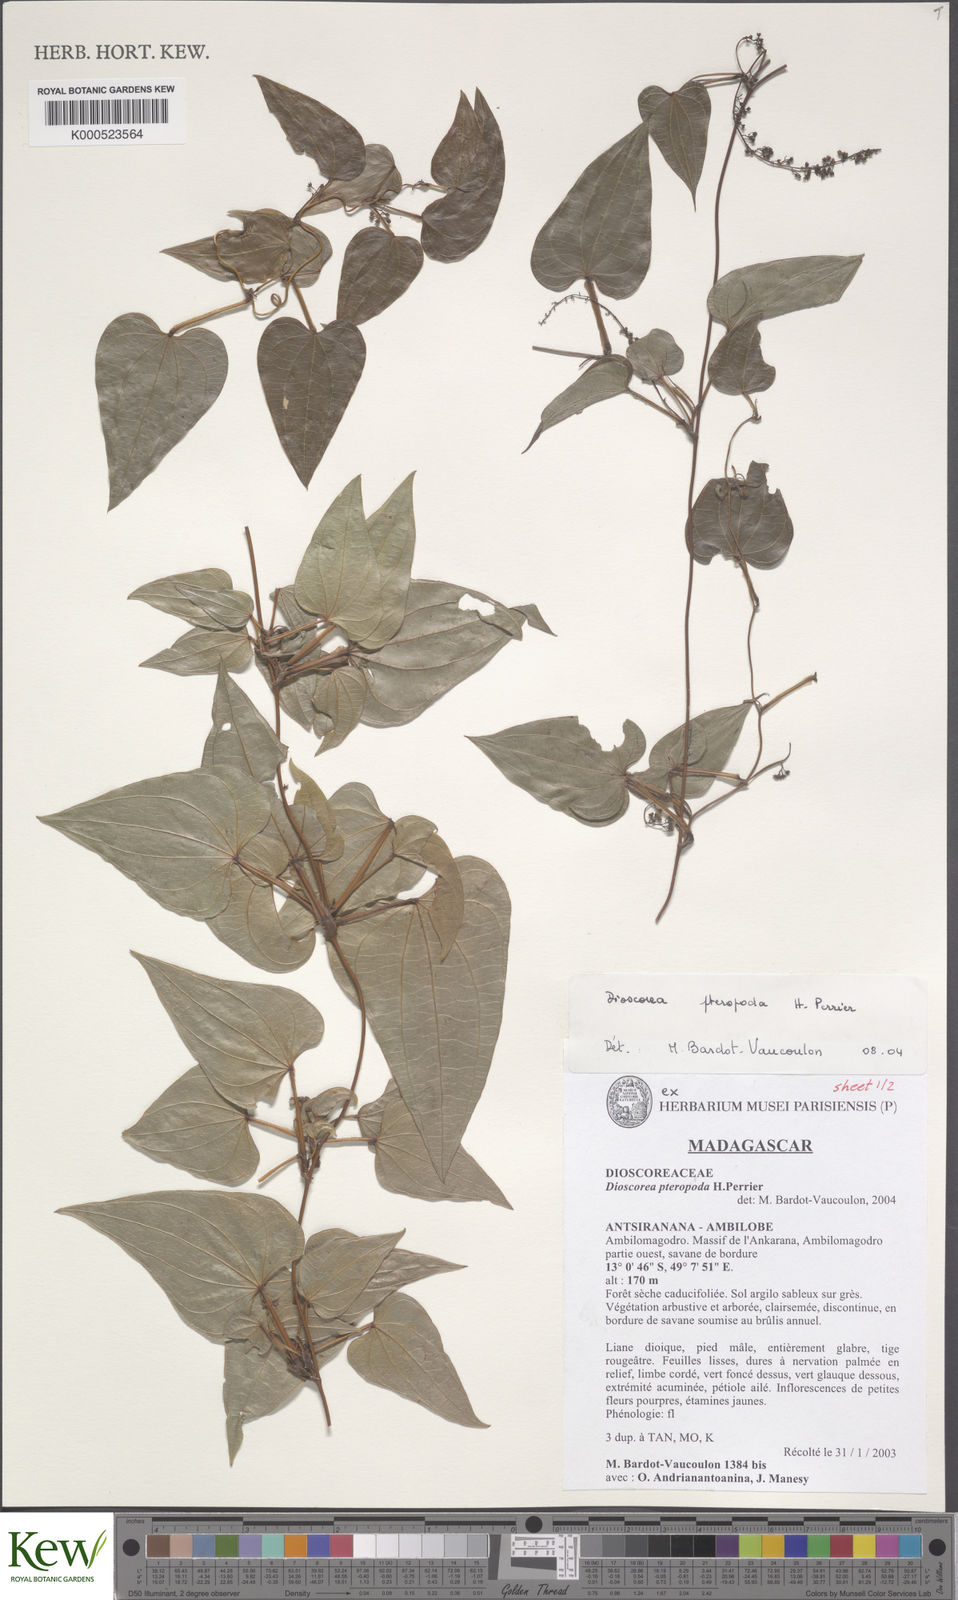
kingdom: Plantae
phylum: Tracheophyta
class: Liliopsida
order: Dioscoreales
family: Dioscoreaceae
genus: Dioscorea
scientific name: Dioscorea pteropoda
